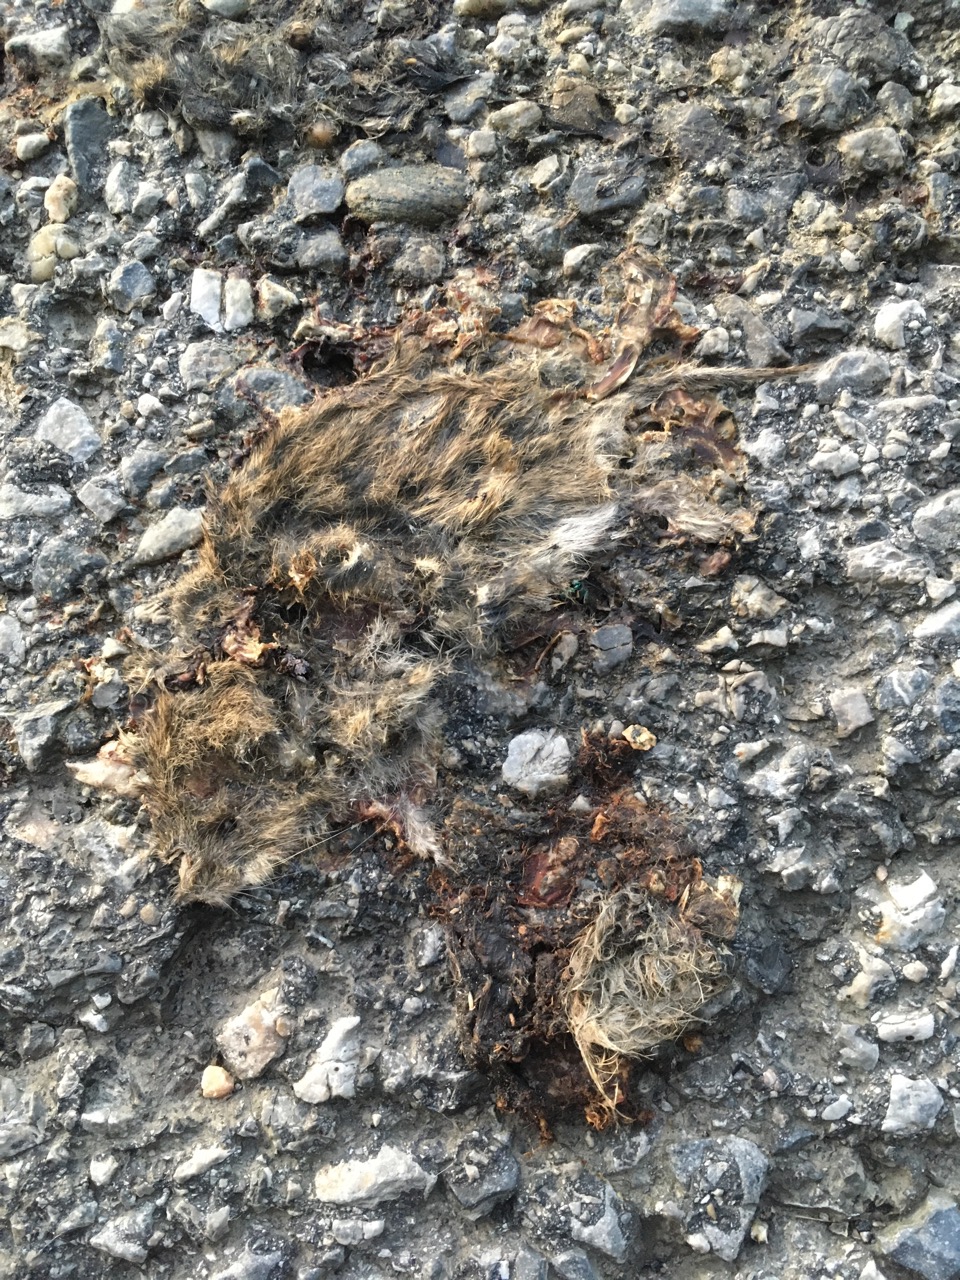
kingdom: Animalia
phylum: Chordata
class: Mammalia
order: Rodentia
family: Cricetidae
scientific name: Cricetidae
